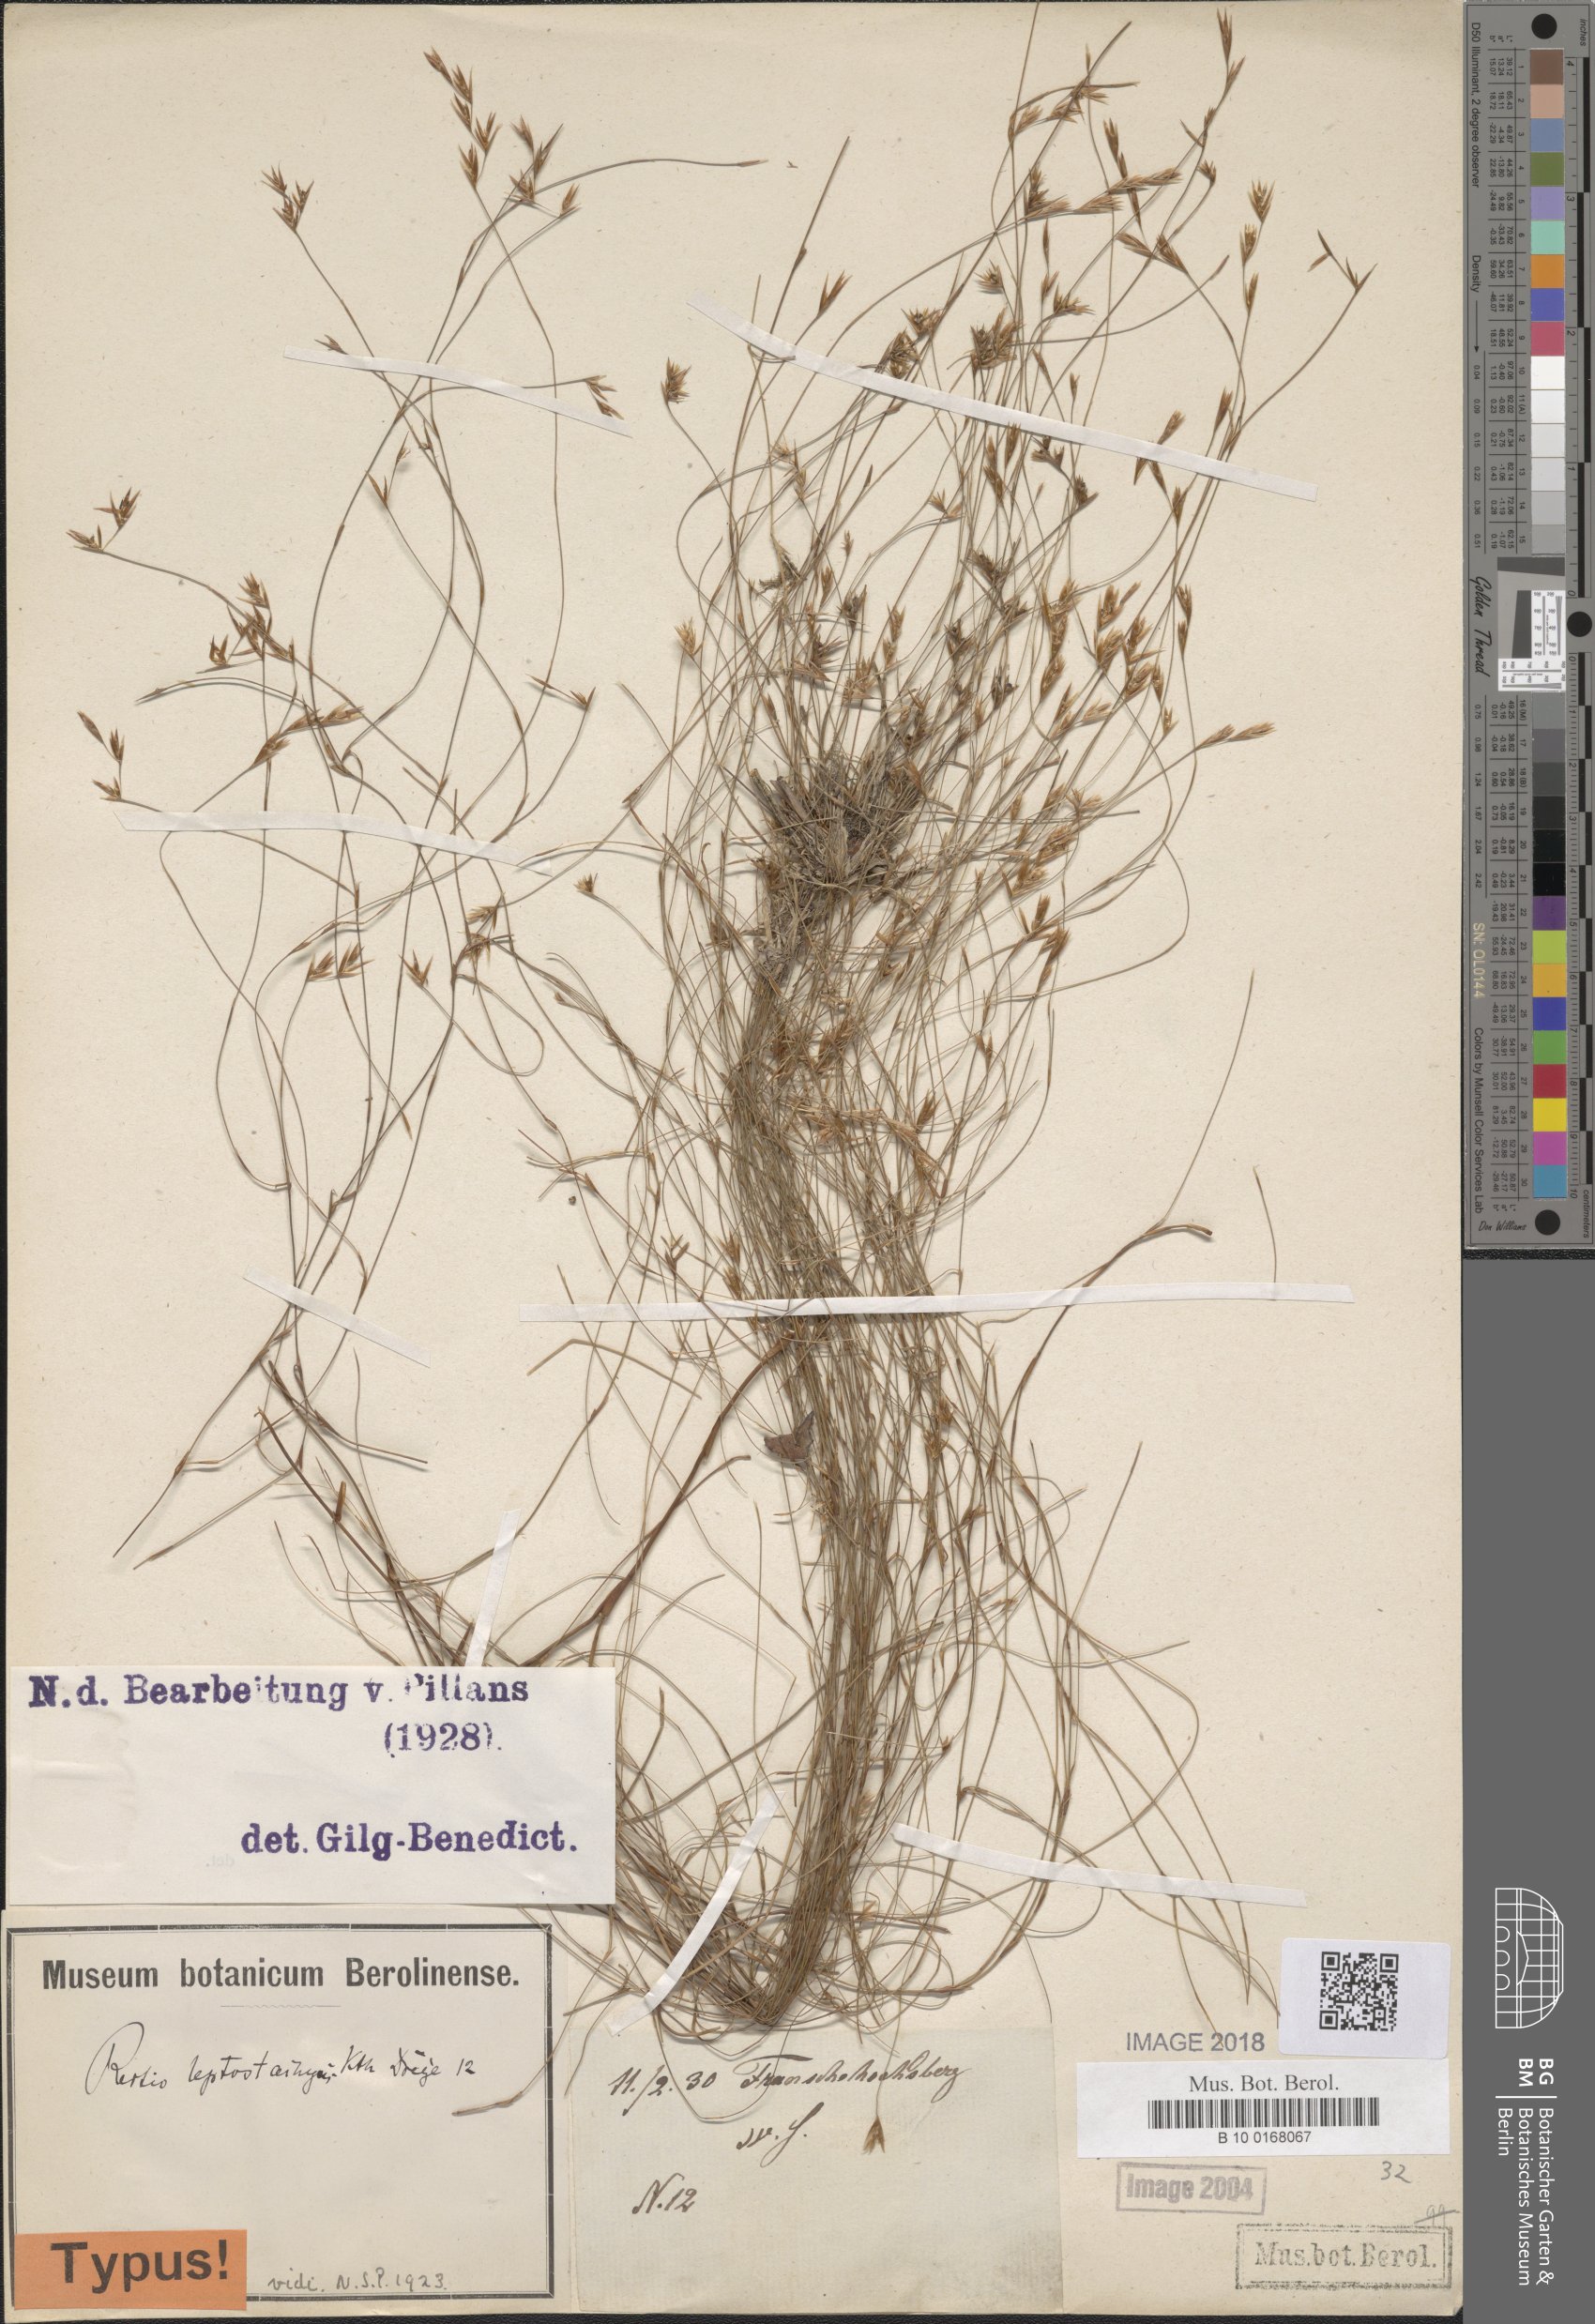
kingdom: Plantae
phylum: Tracheophyta
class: Liliopsida
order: Poales
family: Restionaceae
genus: Restio
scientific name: Restio leptostachyus
